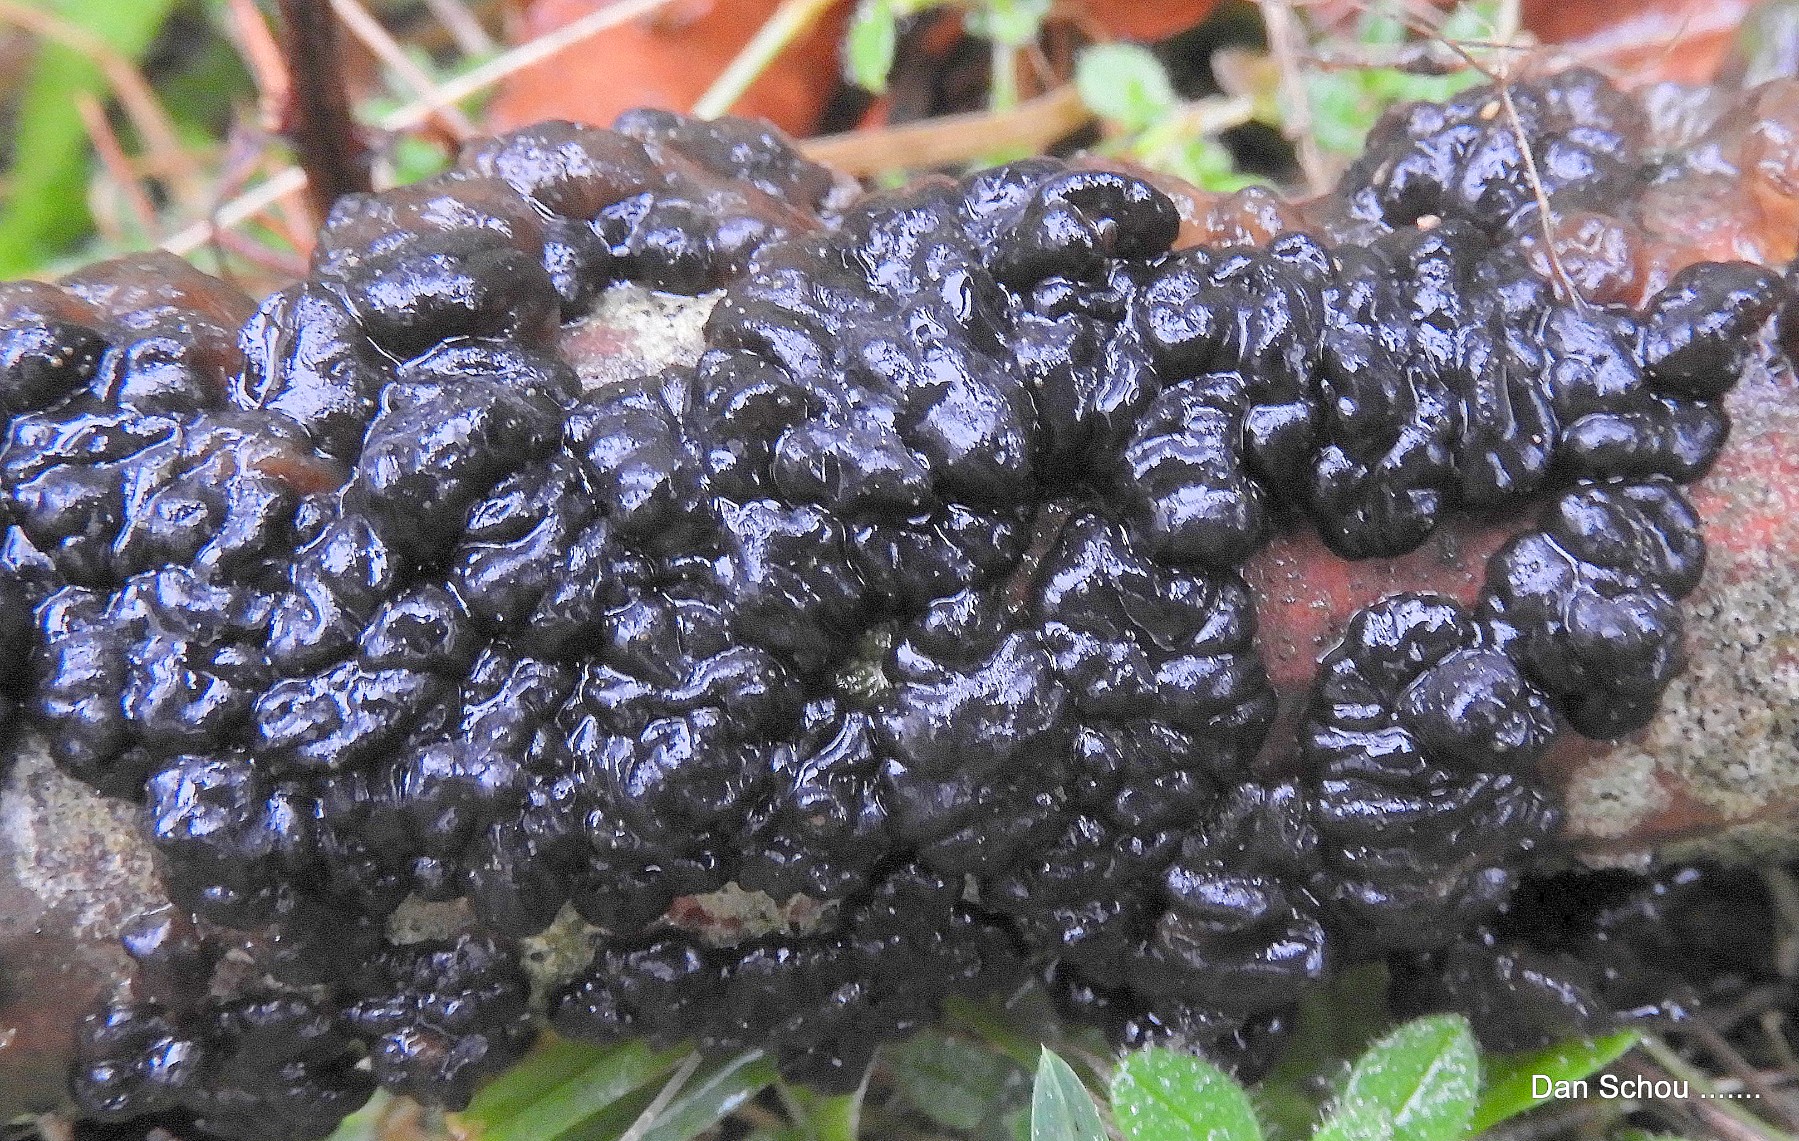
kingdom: Fungi
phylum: Basidiomycota
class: Agaricomycetes
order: Auriculariales
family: Auriculariaceae
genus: Exidia
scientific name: Exidia nigricans
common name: almindelig bævretop
